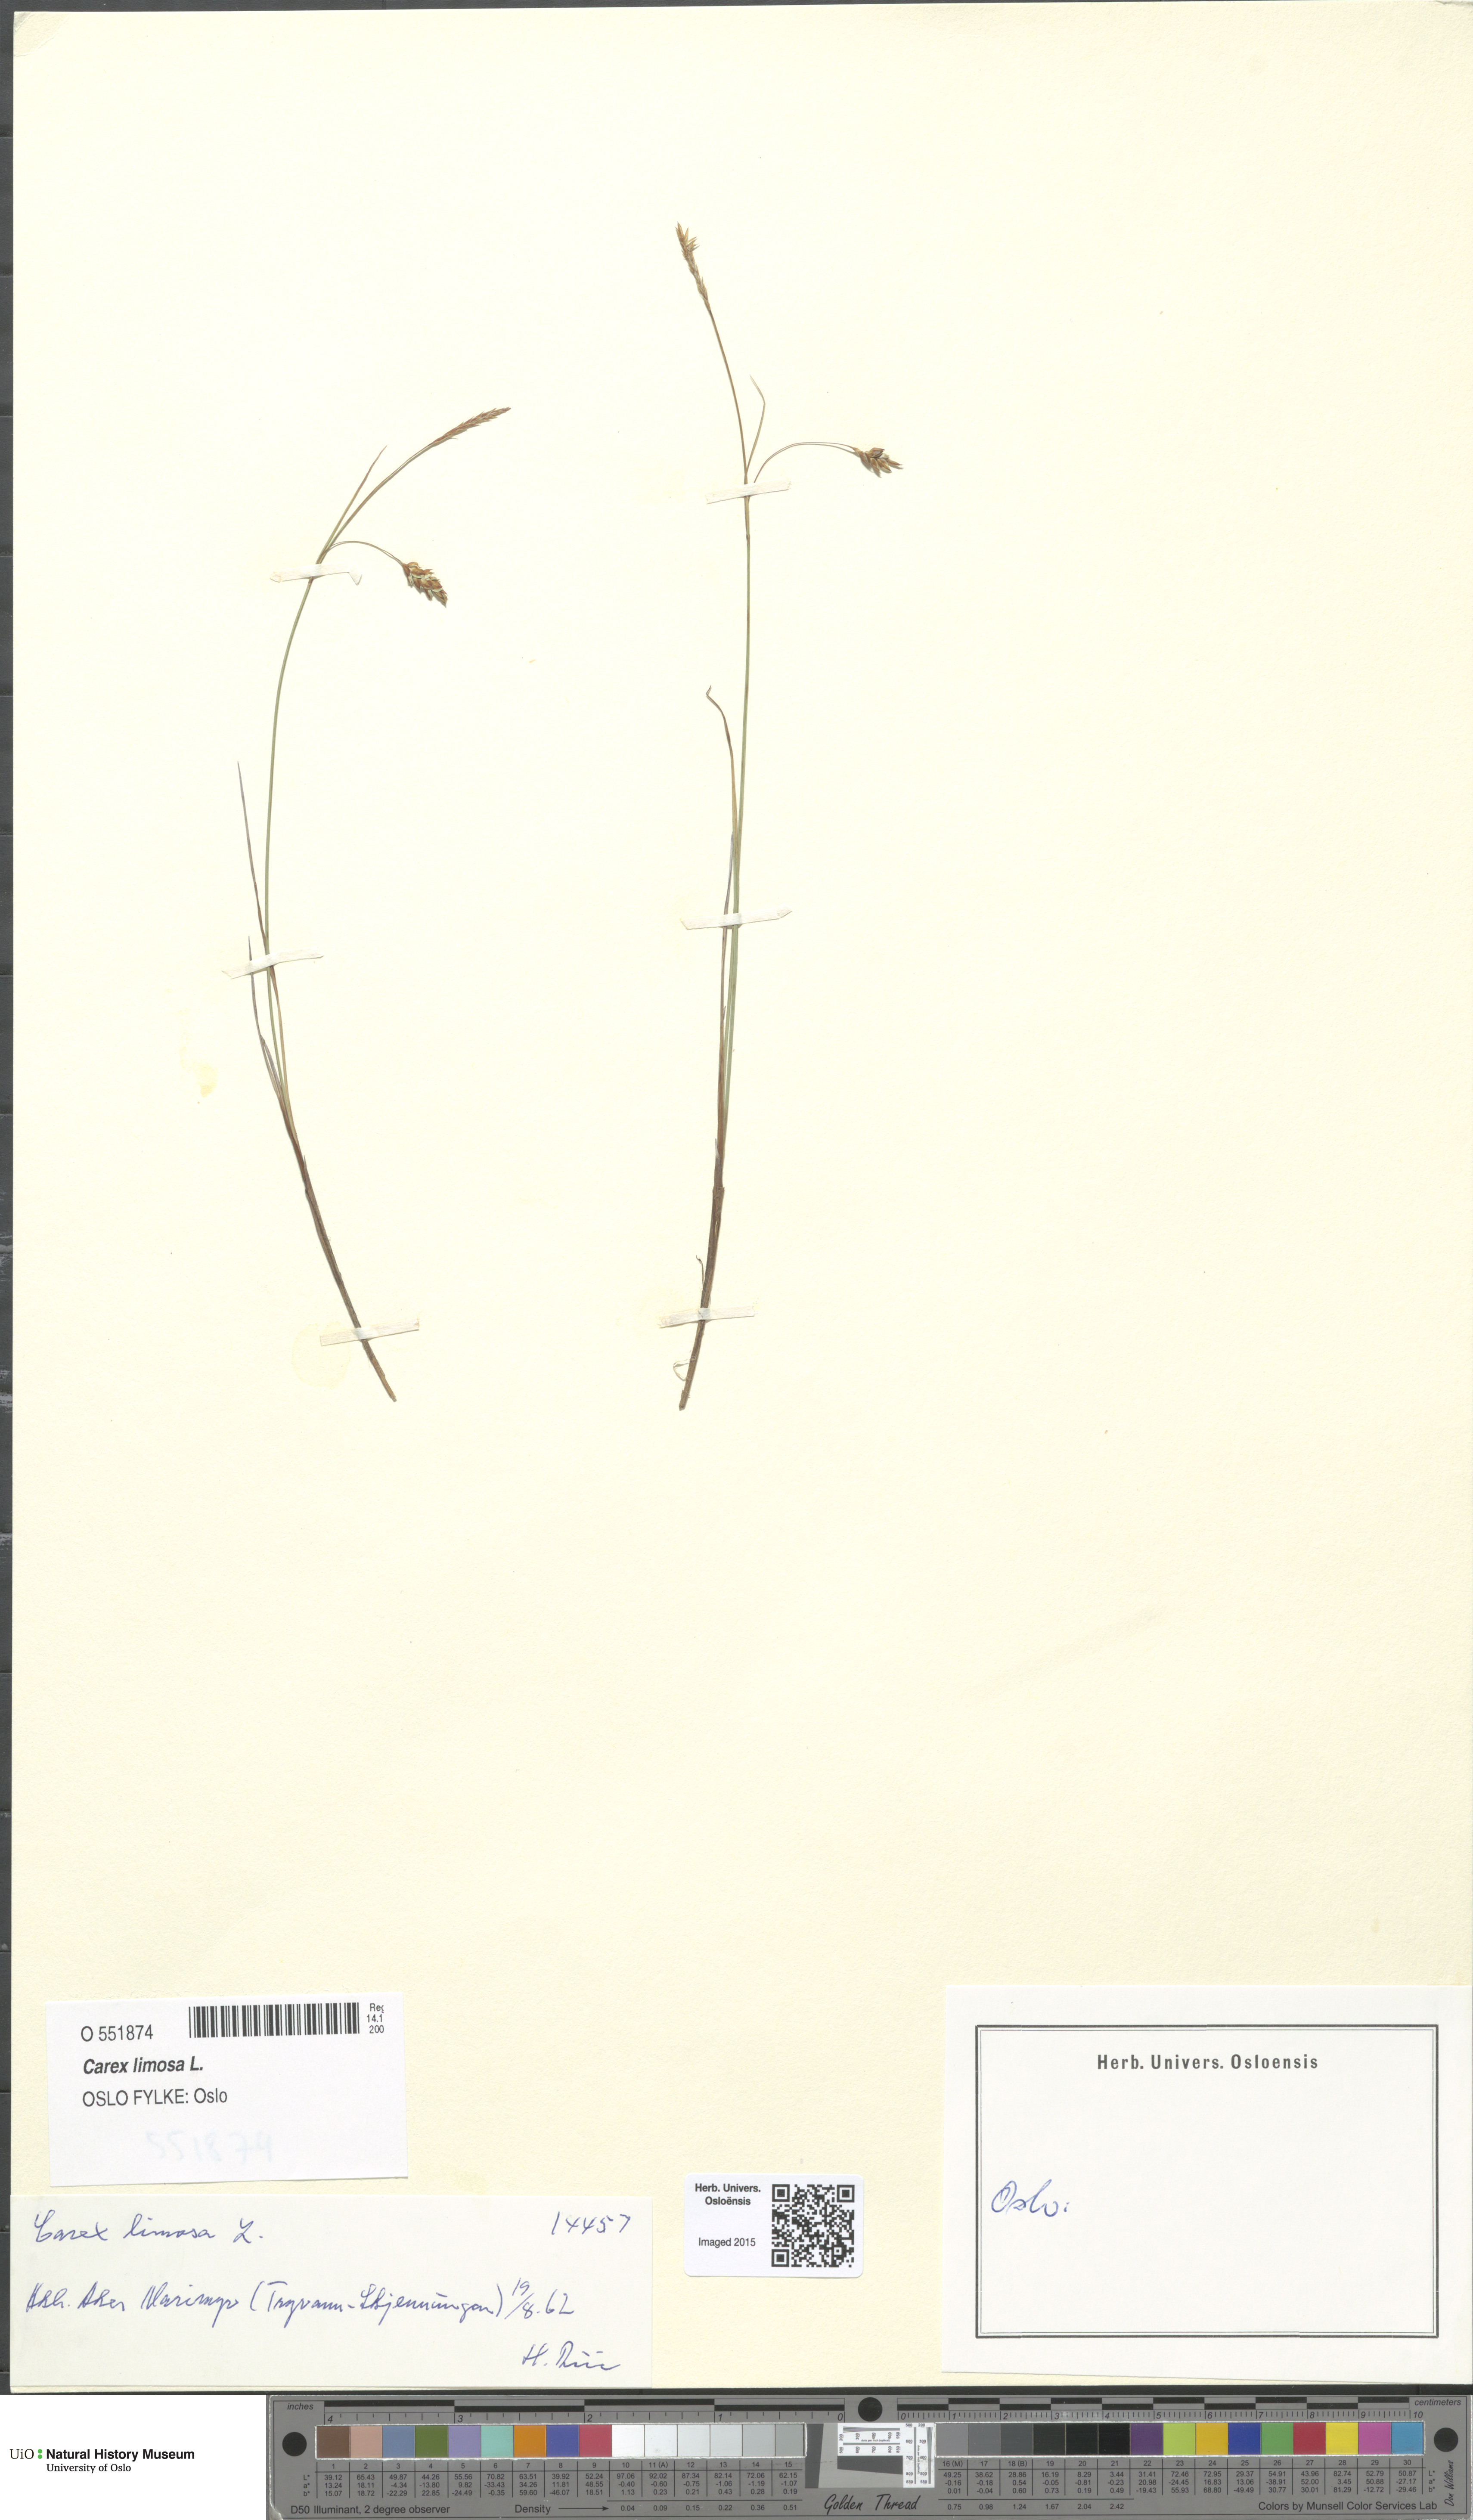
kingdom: Plantae
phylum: Tracheophyta
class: Liliopsida
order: Poales
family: Cyperaceae
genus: Carex
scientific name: Carex limosa
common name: Bog sedge
